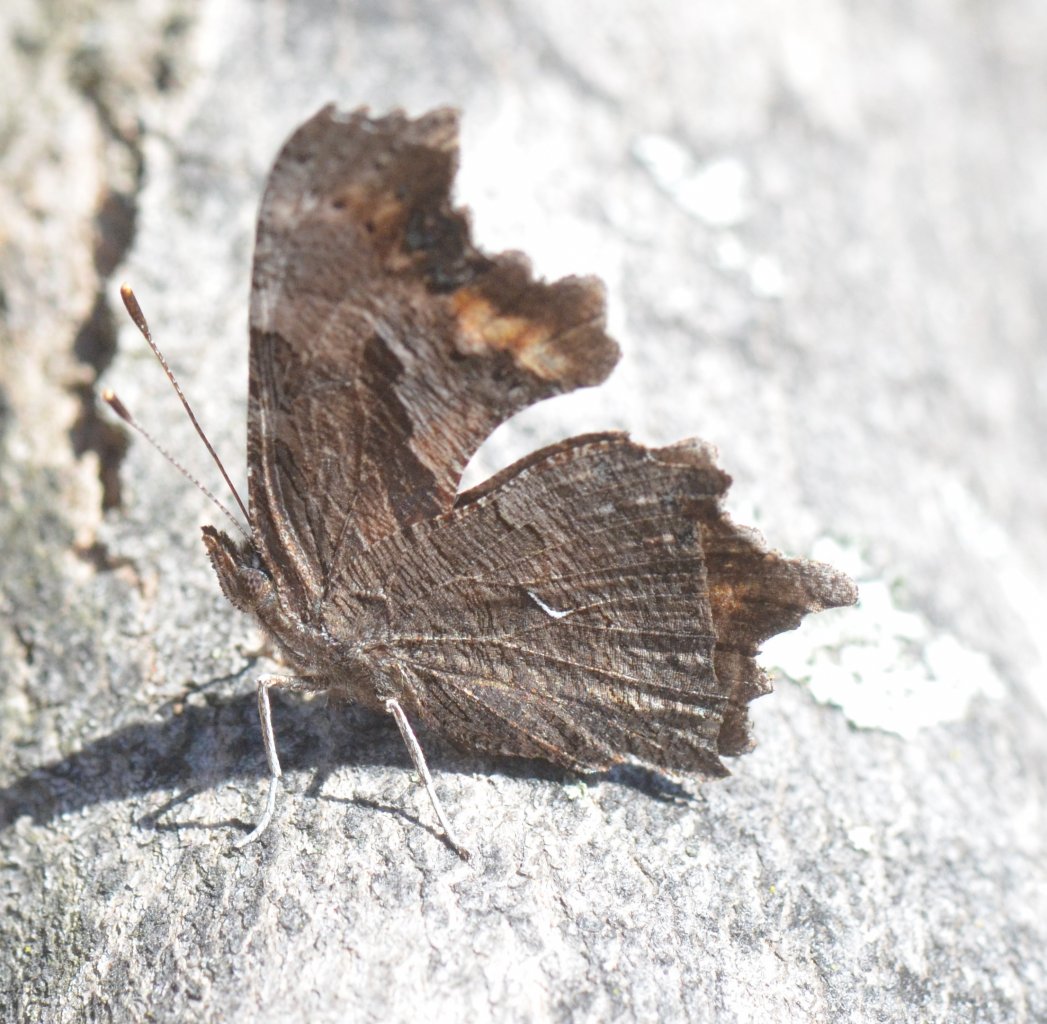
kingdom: Animalia
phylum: Arthropoda
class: Insecta
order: Lepidoptera
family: Nymphalidae
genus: Polygonia
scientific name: Polygonia progne
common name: Gray Comma
